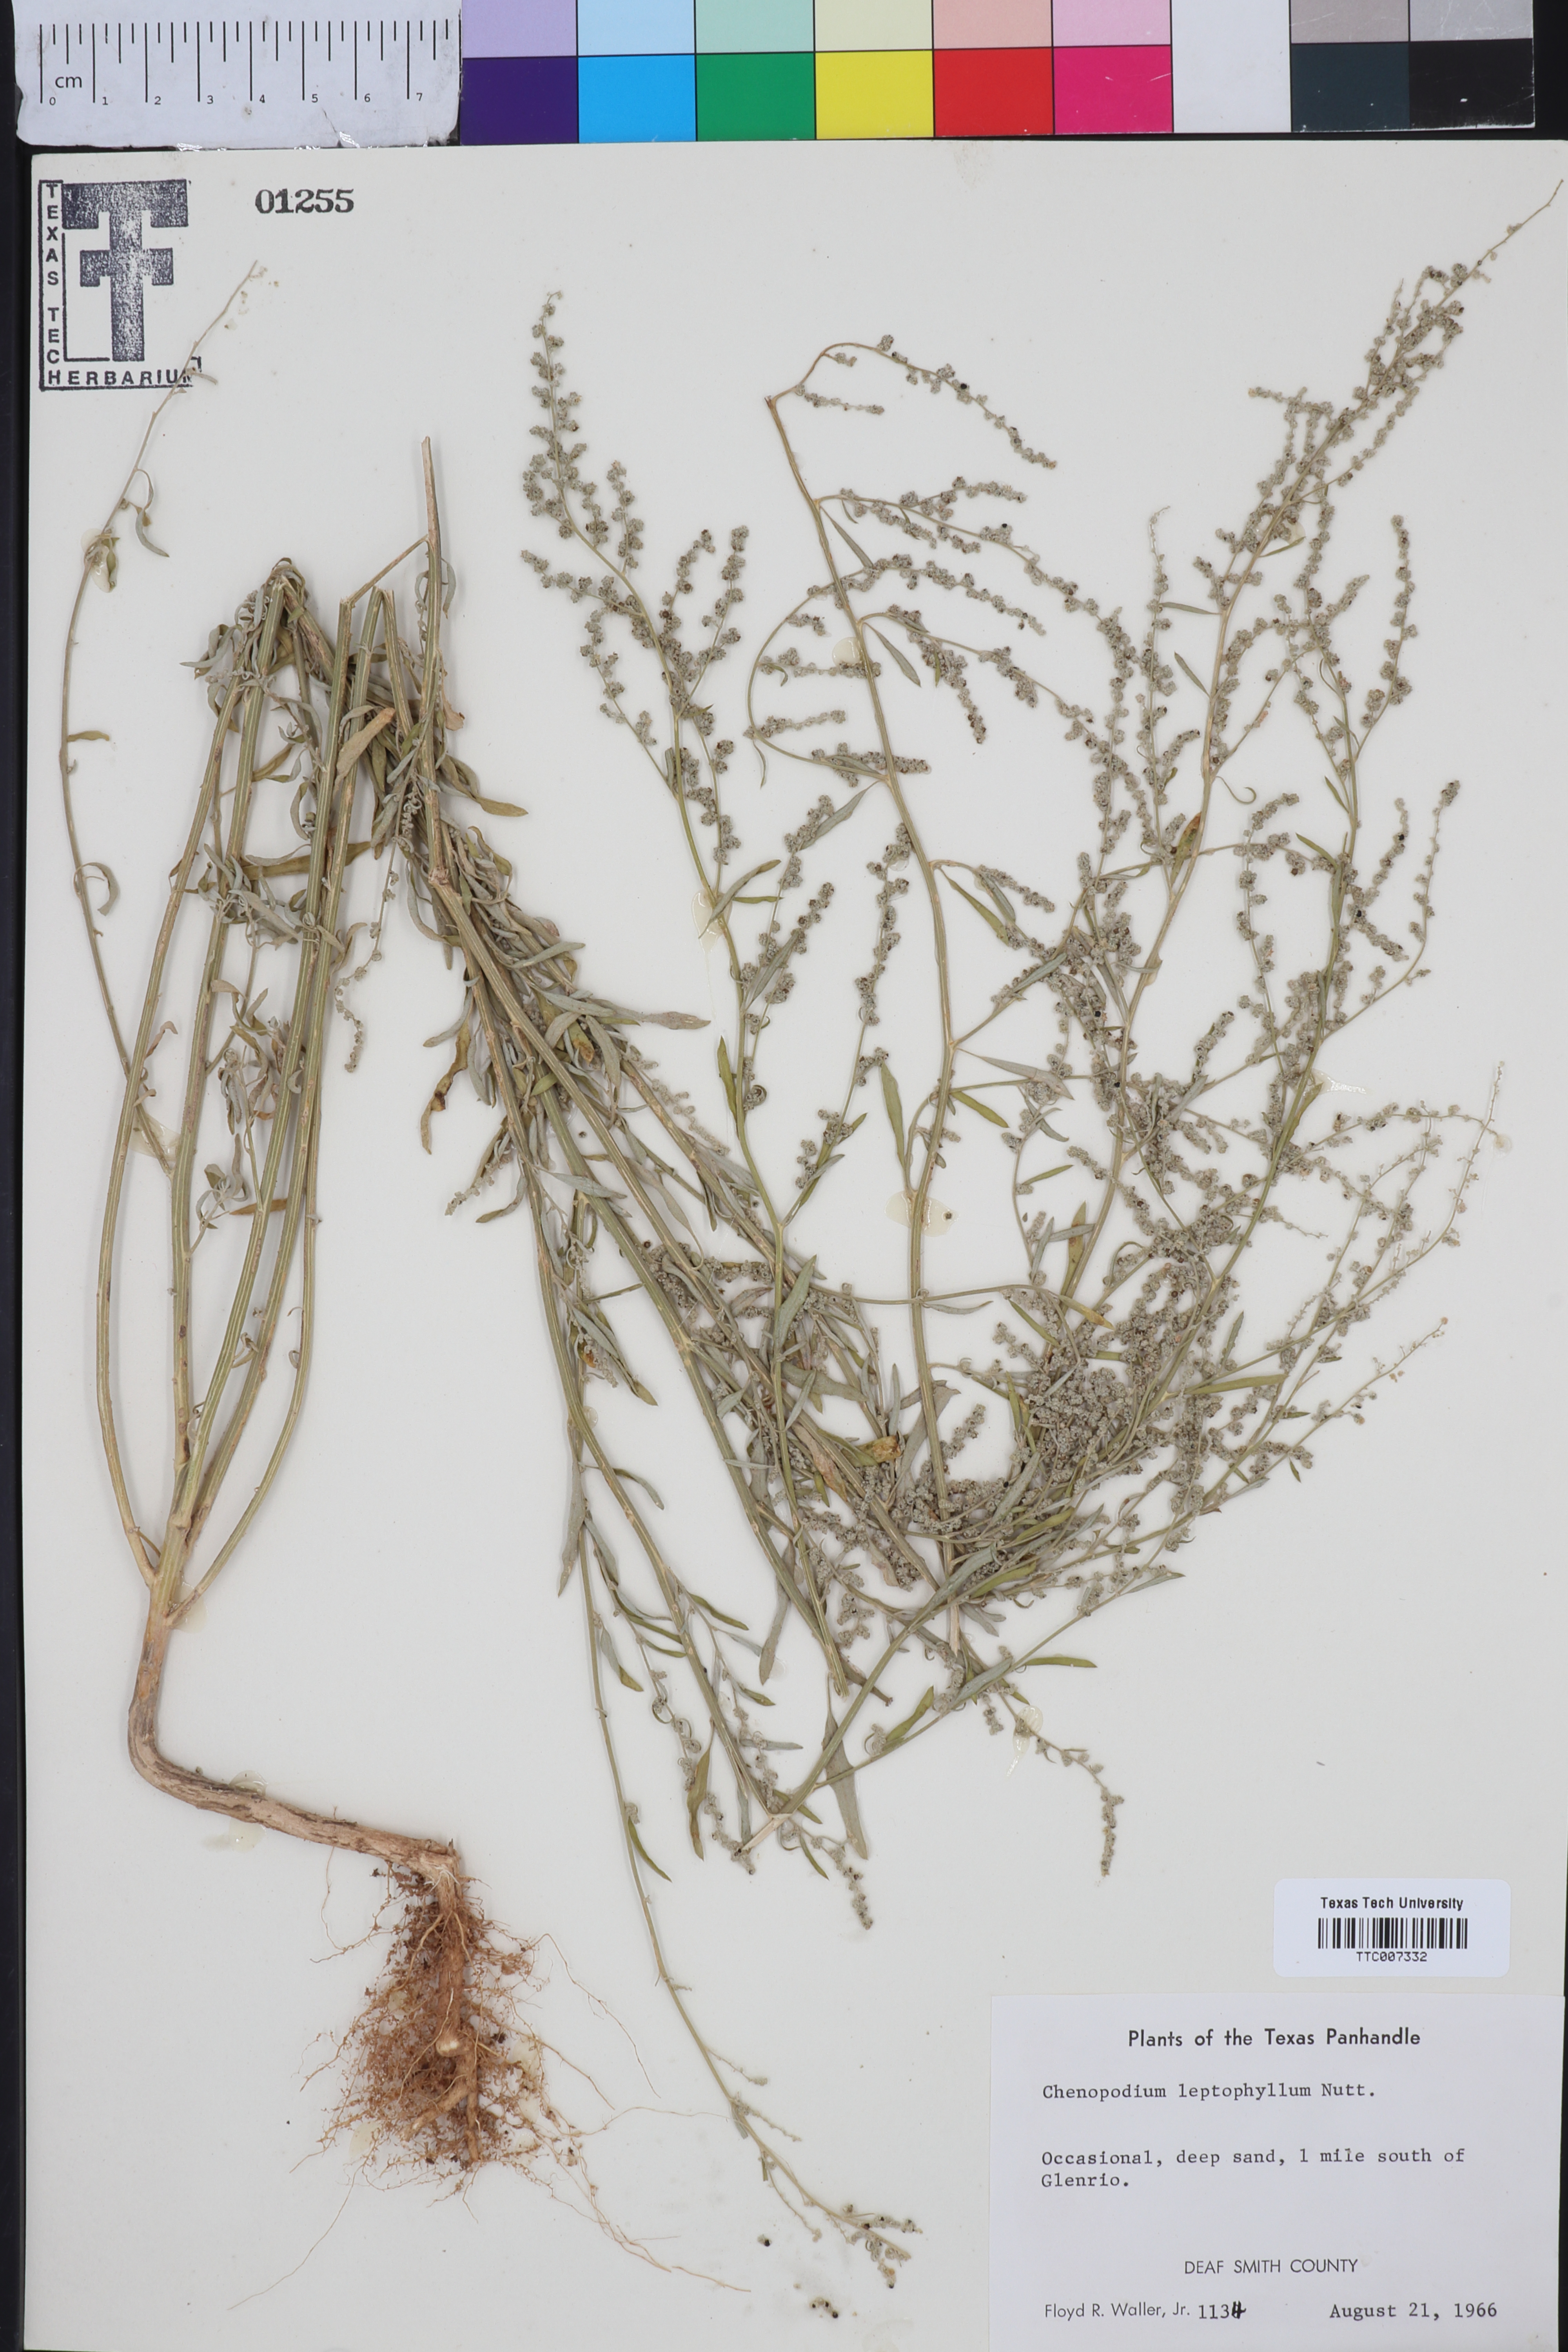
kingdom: Plantae
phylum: Tracheophyta
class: Magnoliopsida
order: Caryophyllales
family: Amaranthaceae
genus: Chenopodium
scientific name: Chenopodium leptophyllum
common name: Narrow-leaf goosefoot
